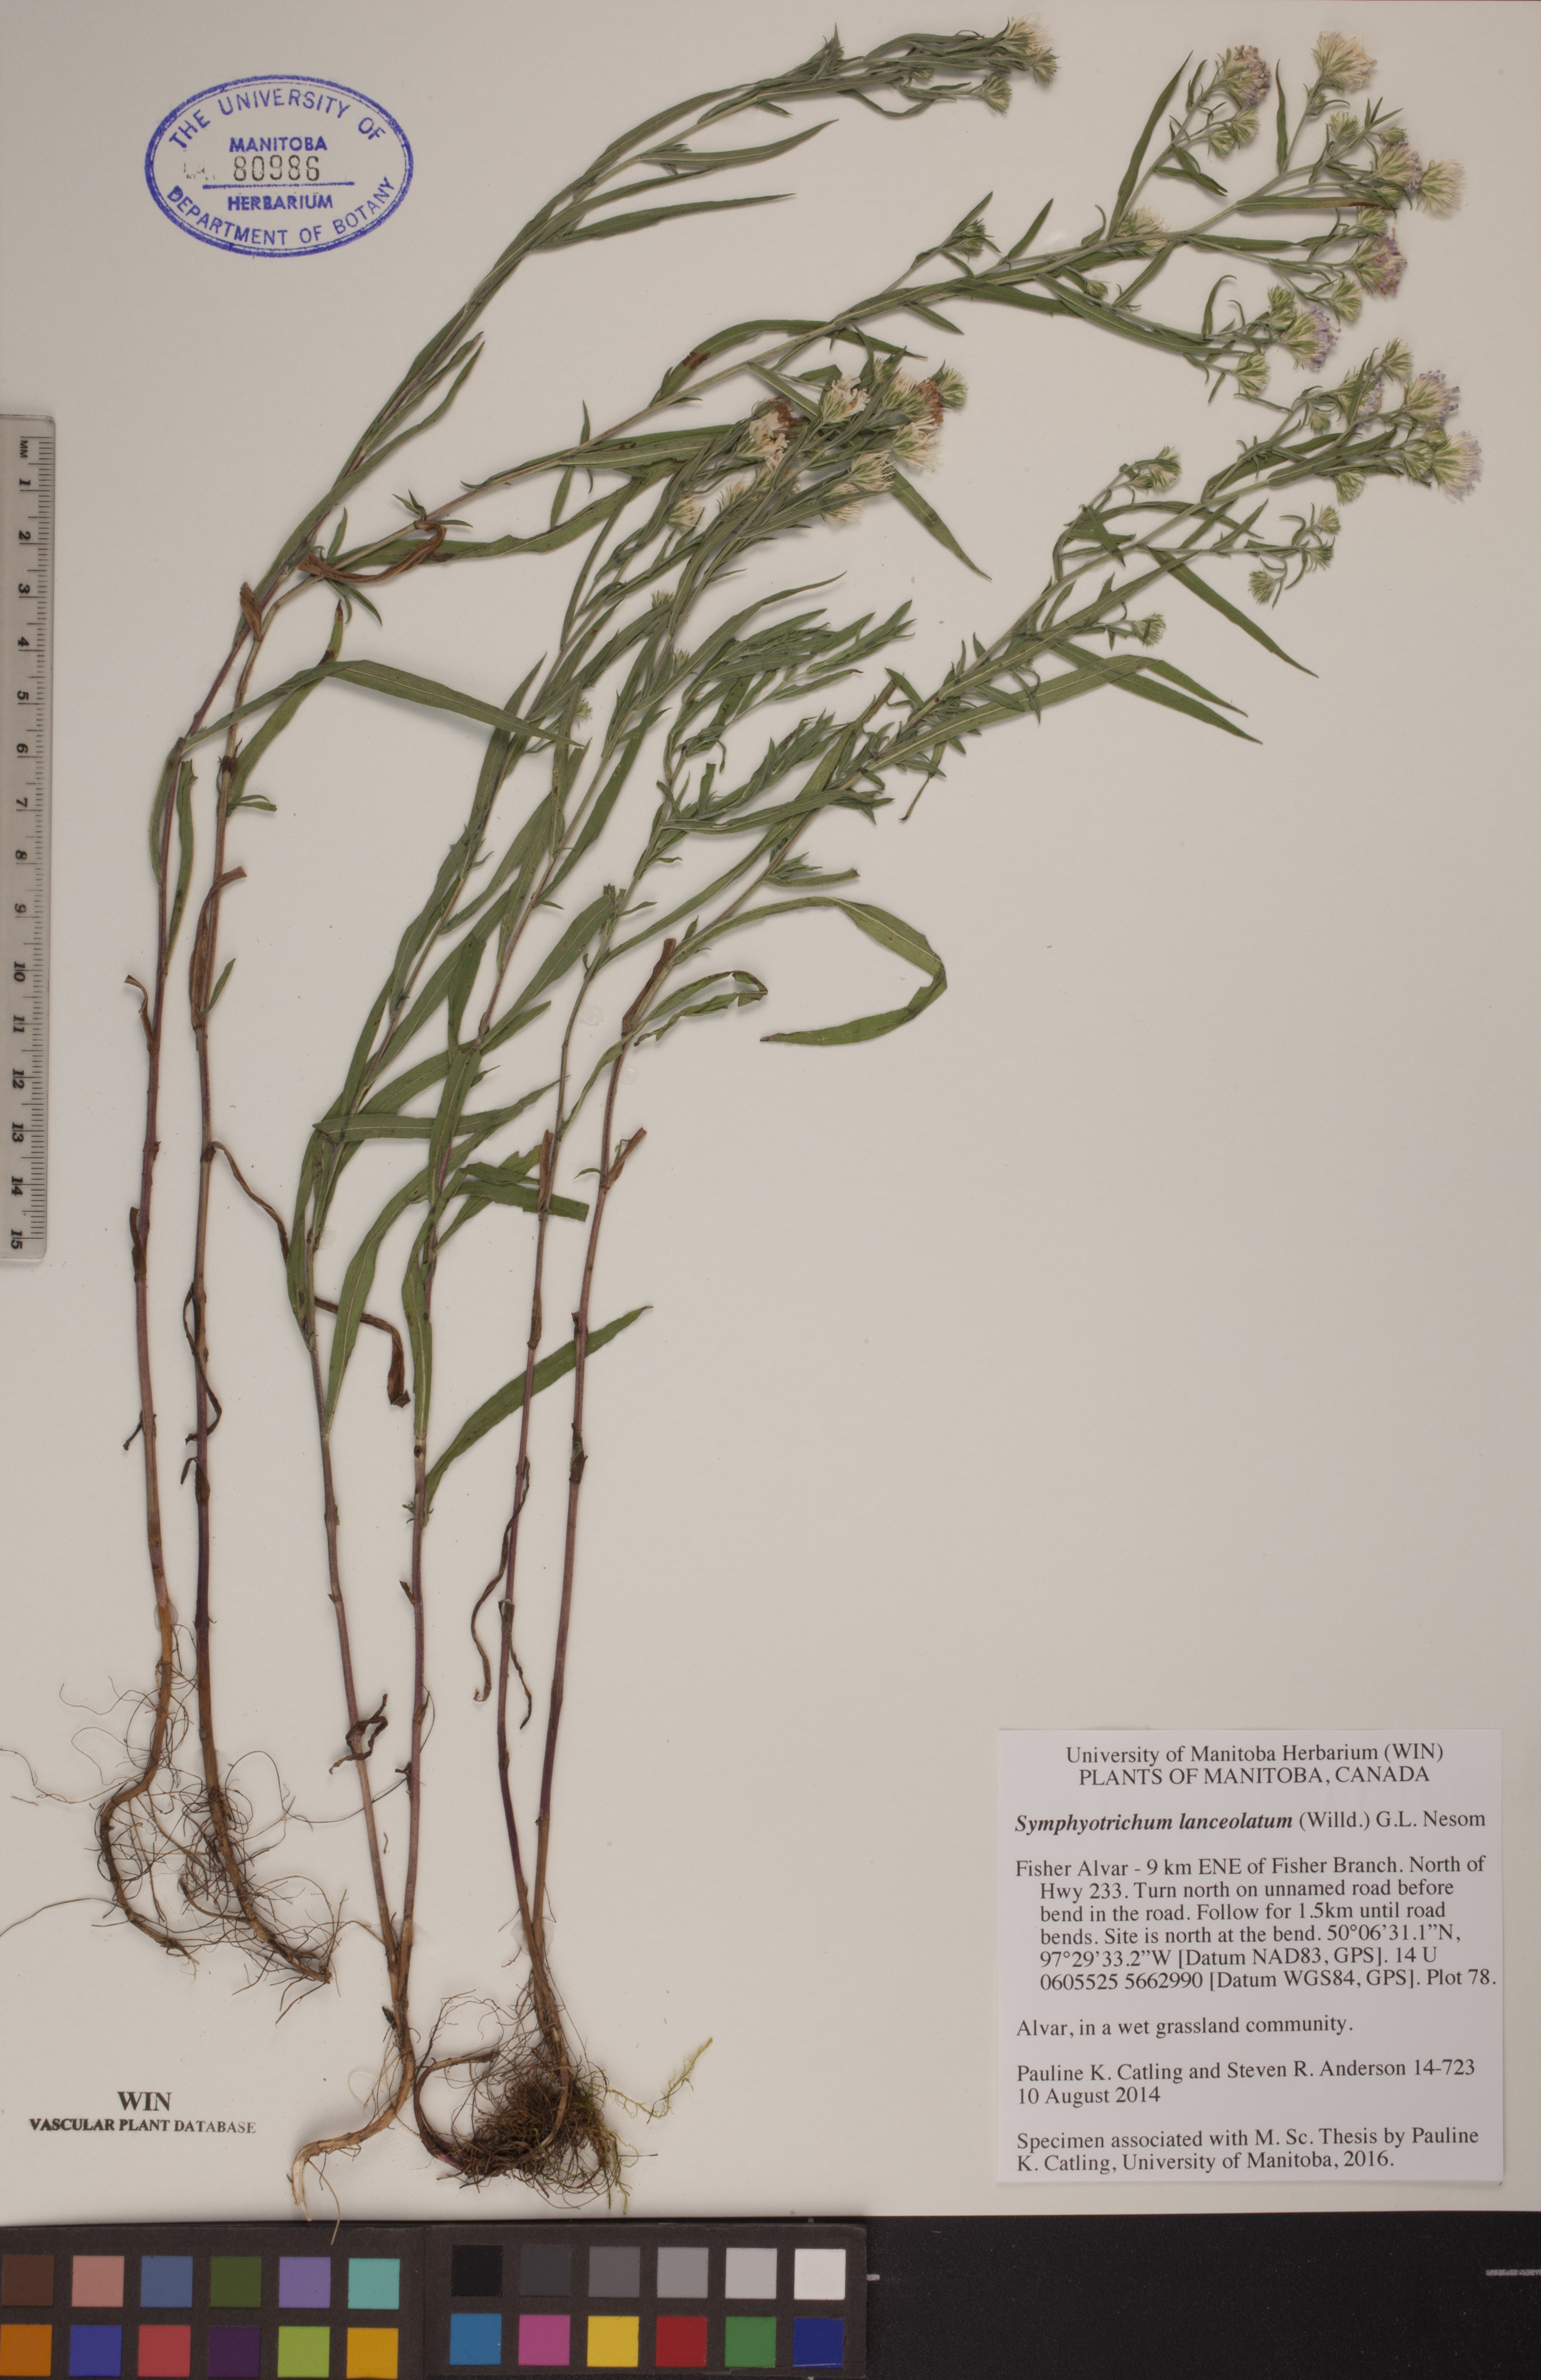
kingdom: Plantae
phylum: Tracheophyta
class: Magnoliopsida
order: Asterales
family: Asteraceae
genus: Symphyotrichum
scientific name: Symphyotrichum lanceolatum
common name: Panicled aster
